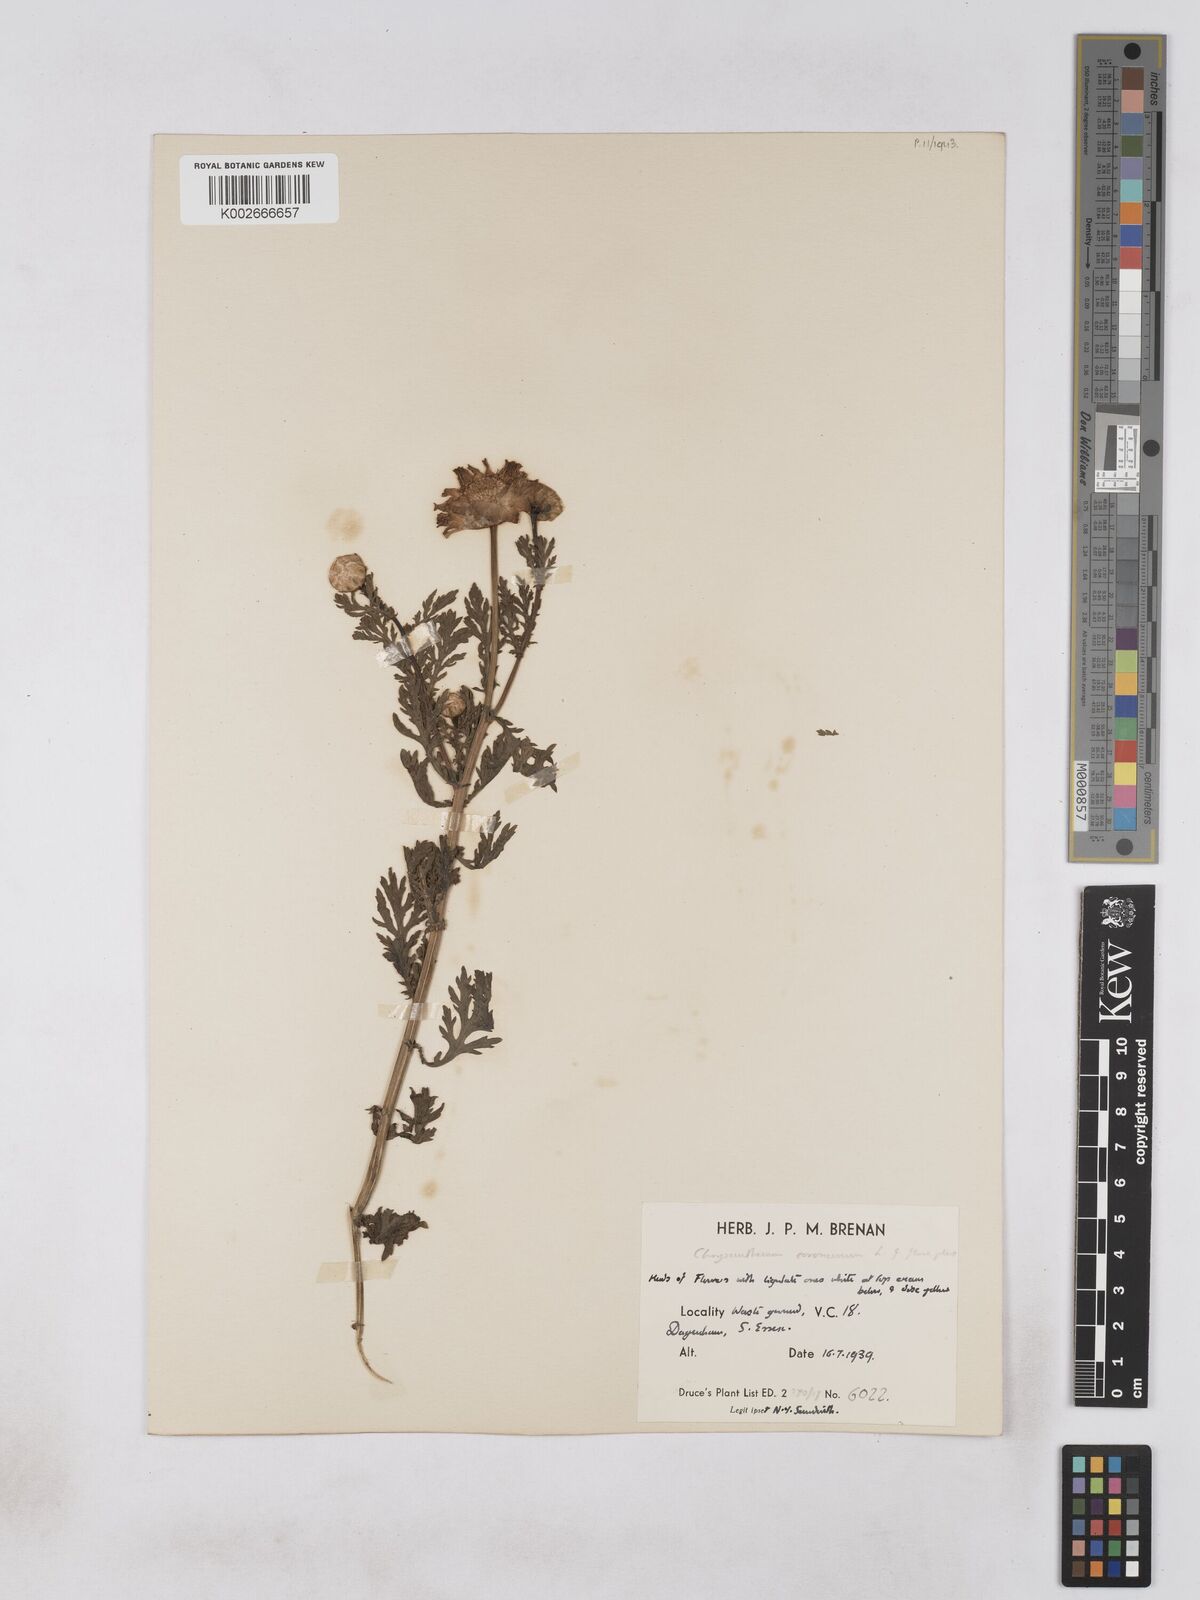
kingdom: Plantae
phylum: Tracheophyta
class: Magnoliopsida
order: Asterales
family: Asteraceae
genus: Glebionis
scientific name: Glebionis coronaria
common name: Crowndaisy
